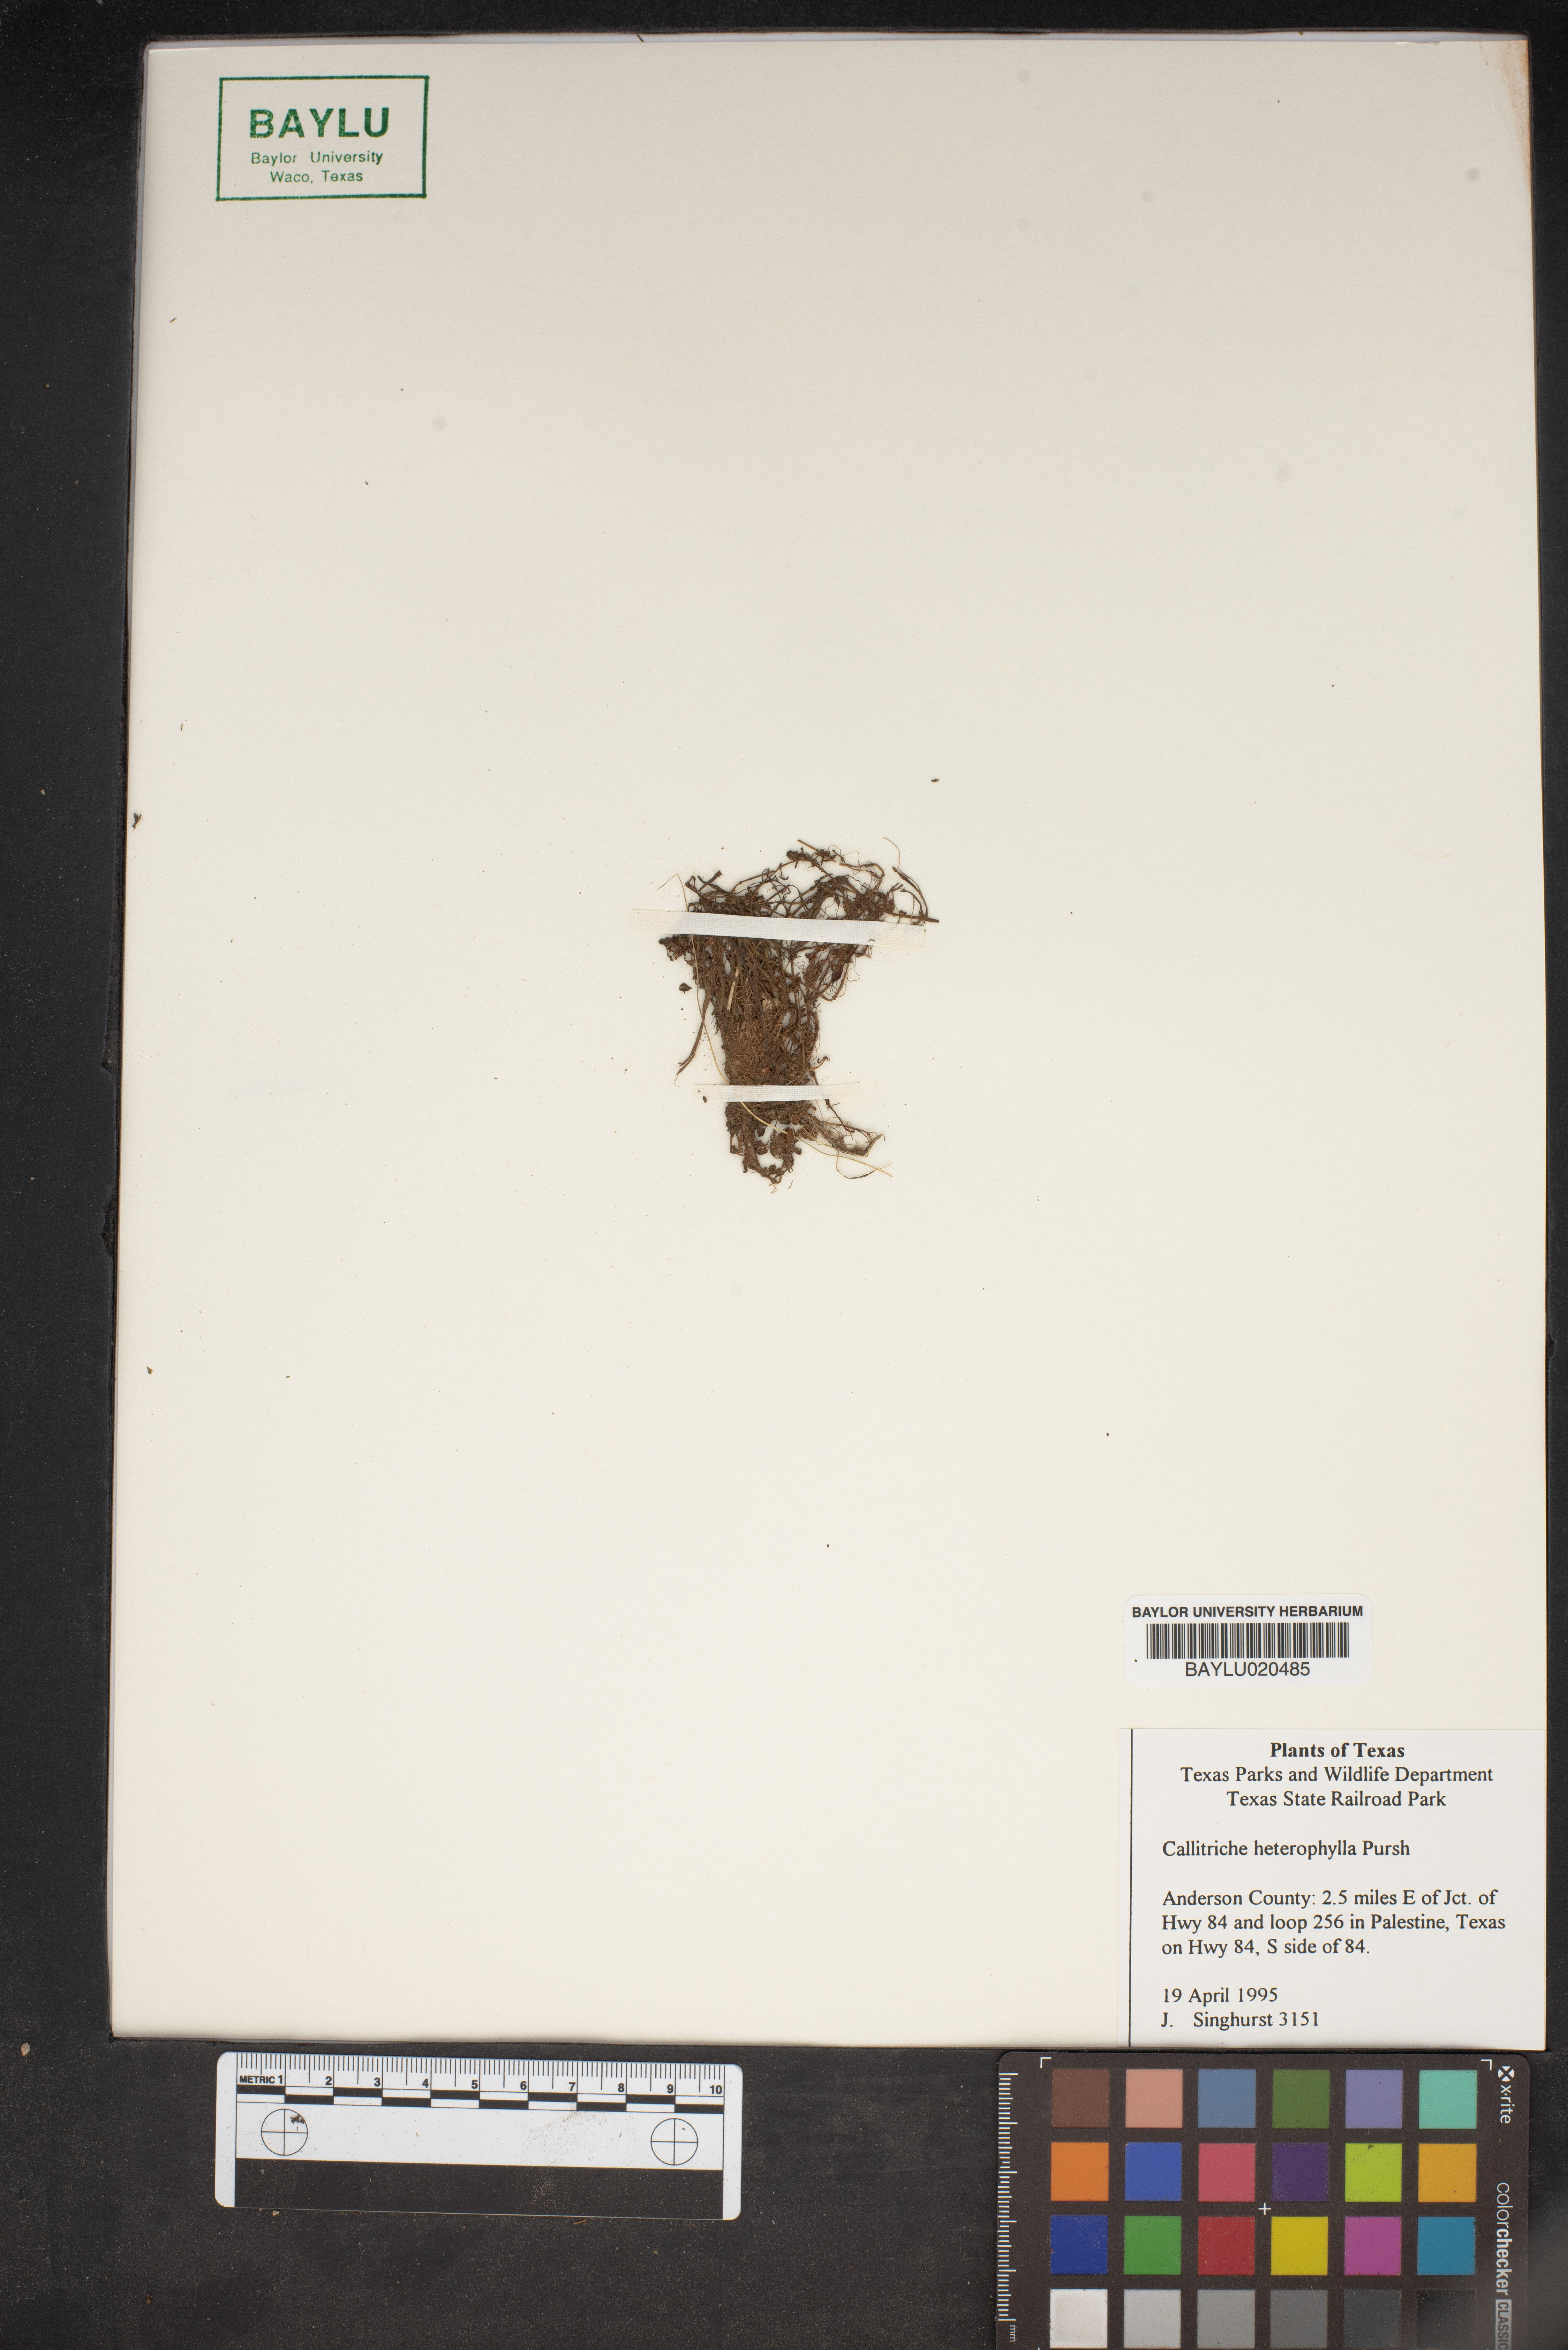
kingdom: Plantae
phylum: Tracheophyta
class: Magnoliopsida
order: Lamiales
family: Plantaginaceae
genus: Callitriche
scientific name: Callitriche heterophylla
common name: Two-headed water-starwort
